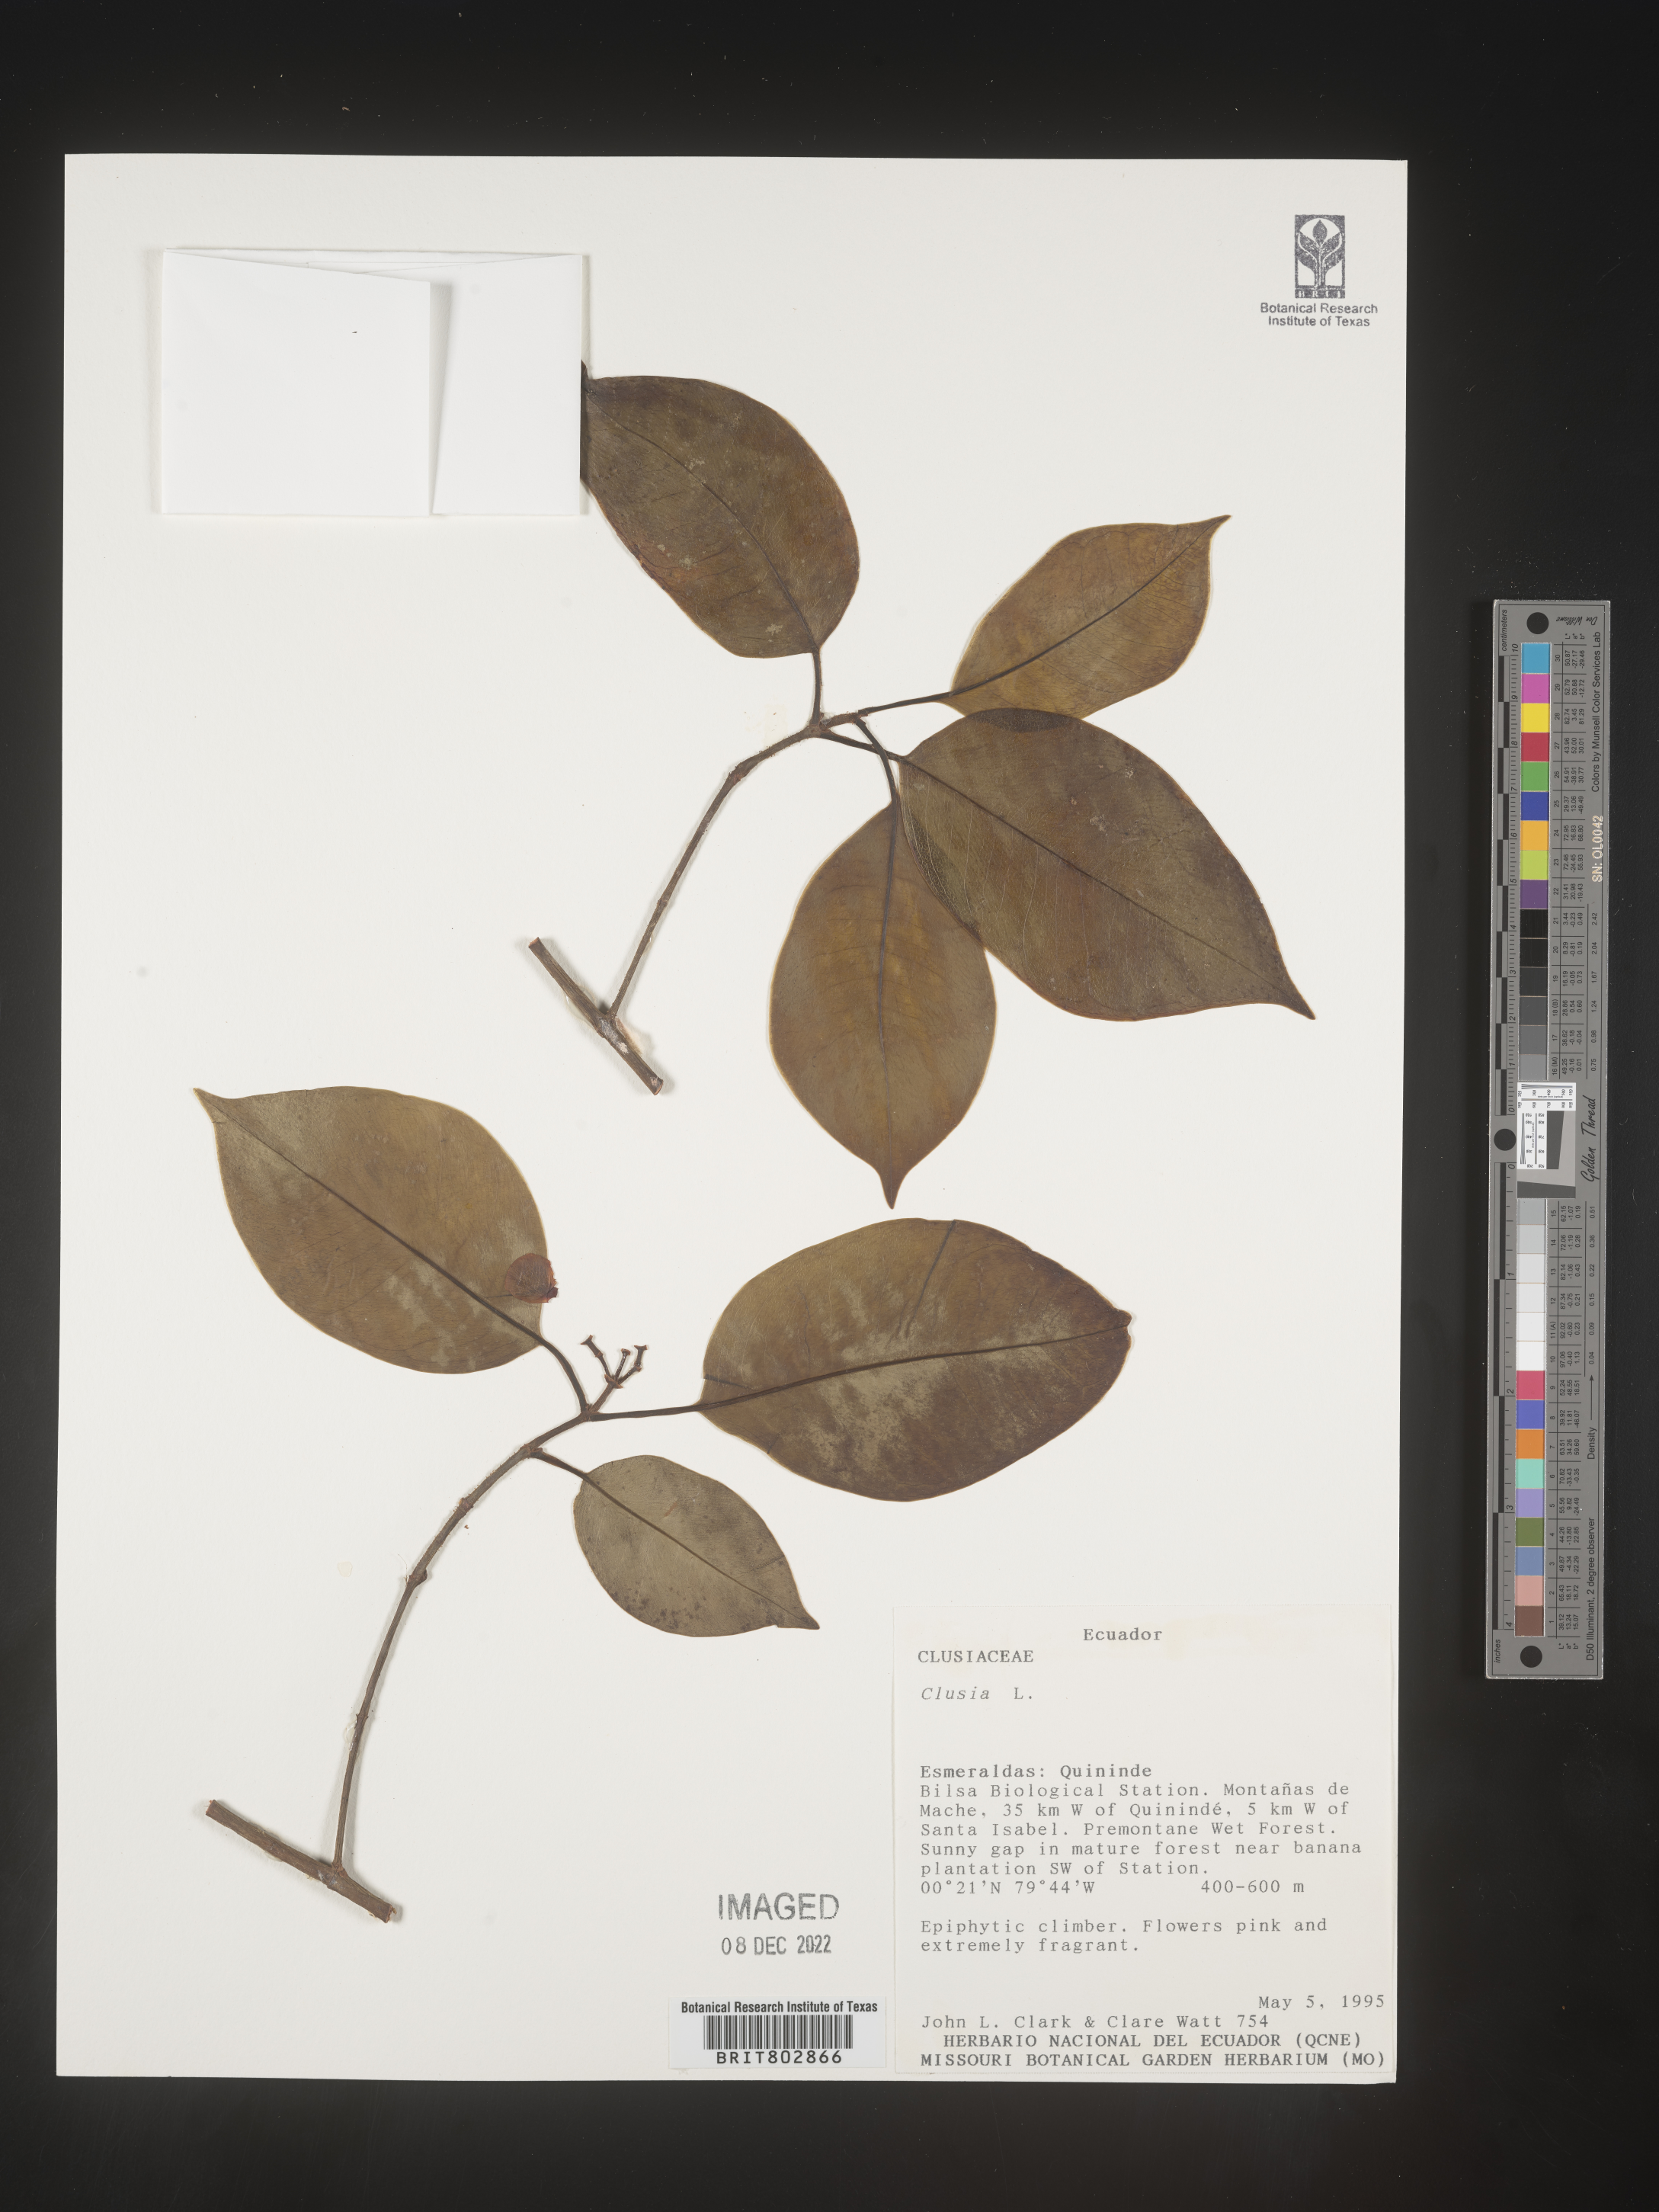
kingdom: Plantae
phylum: Tracheophyta
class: Magnoliopsida
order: Malpighiales
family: Clusiaceae
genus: Clusia
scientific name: Clusia
